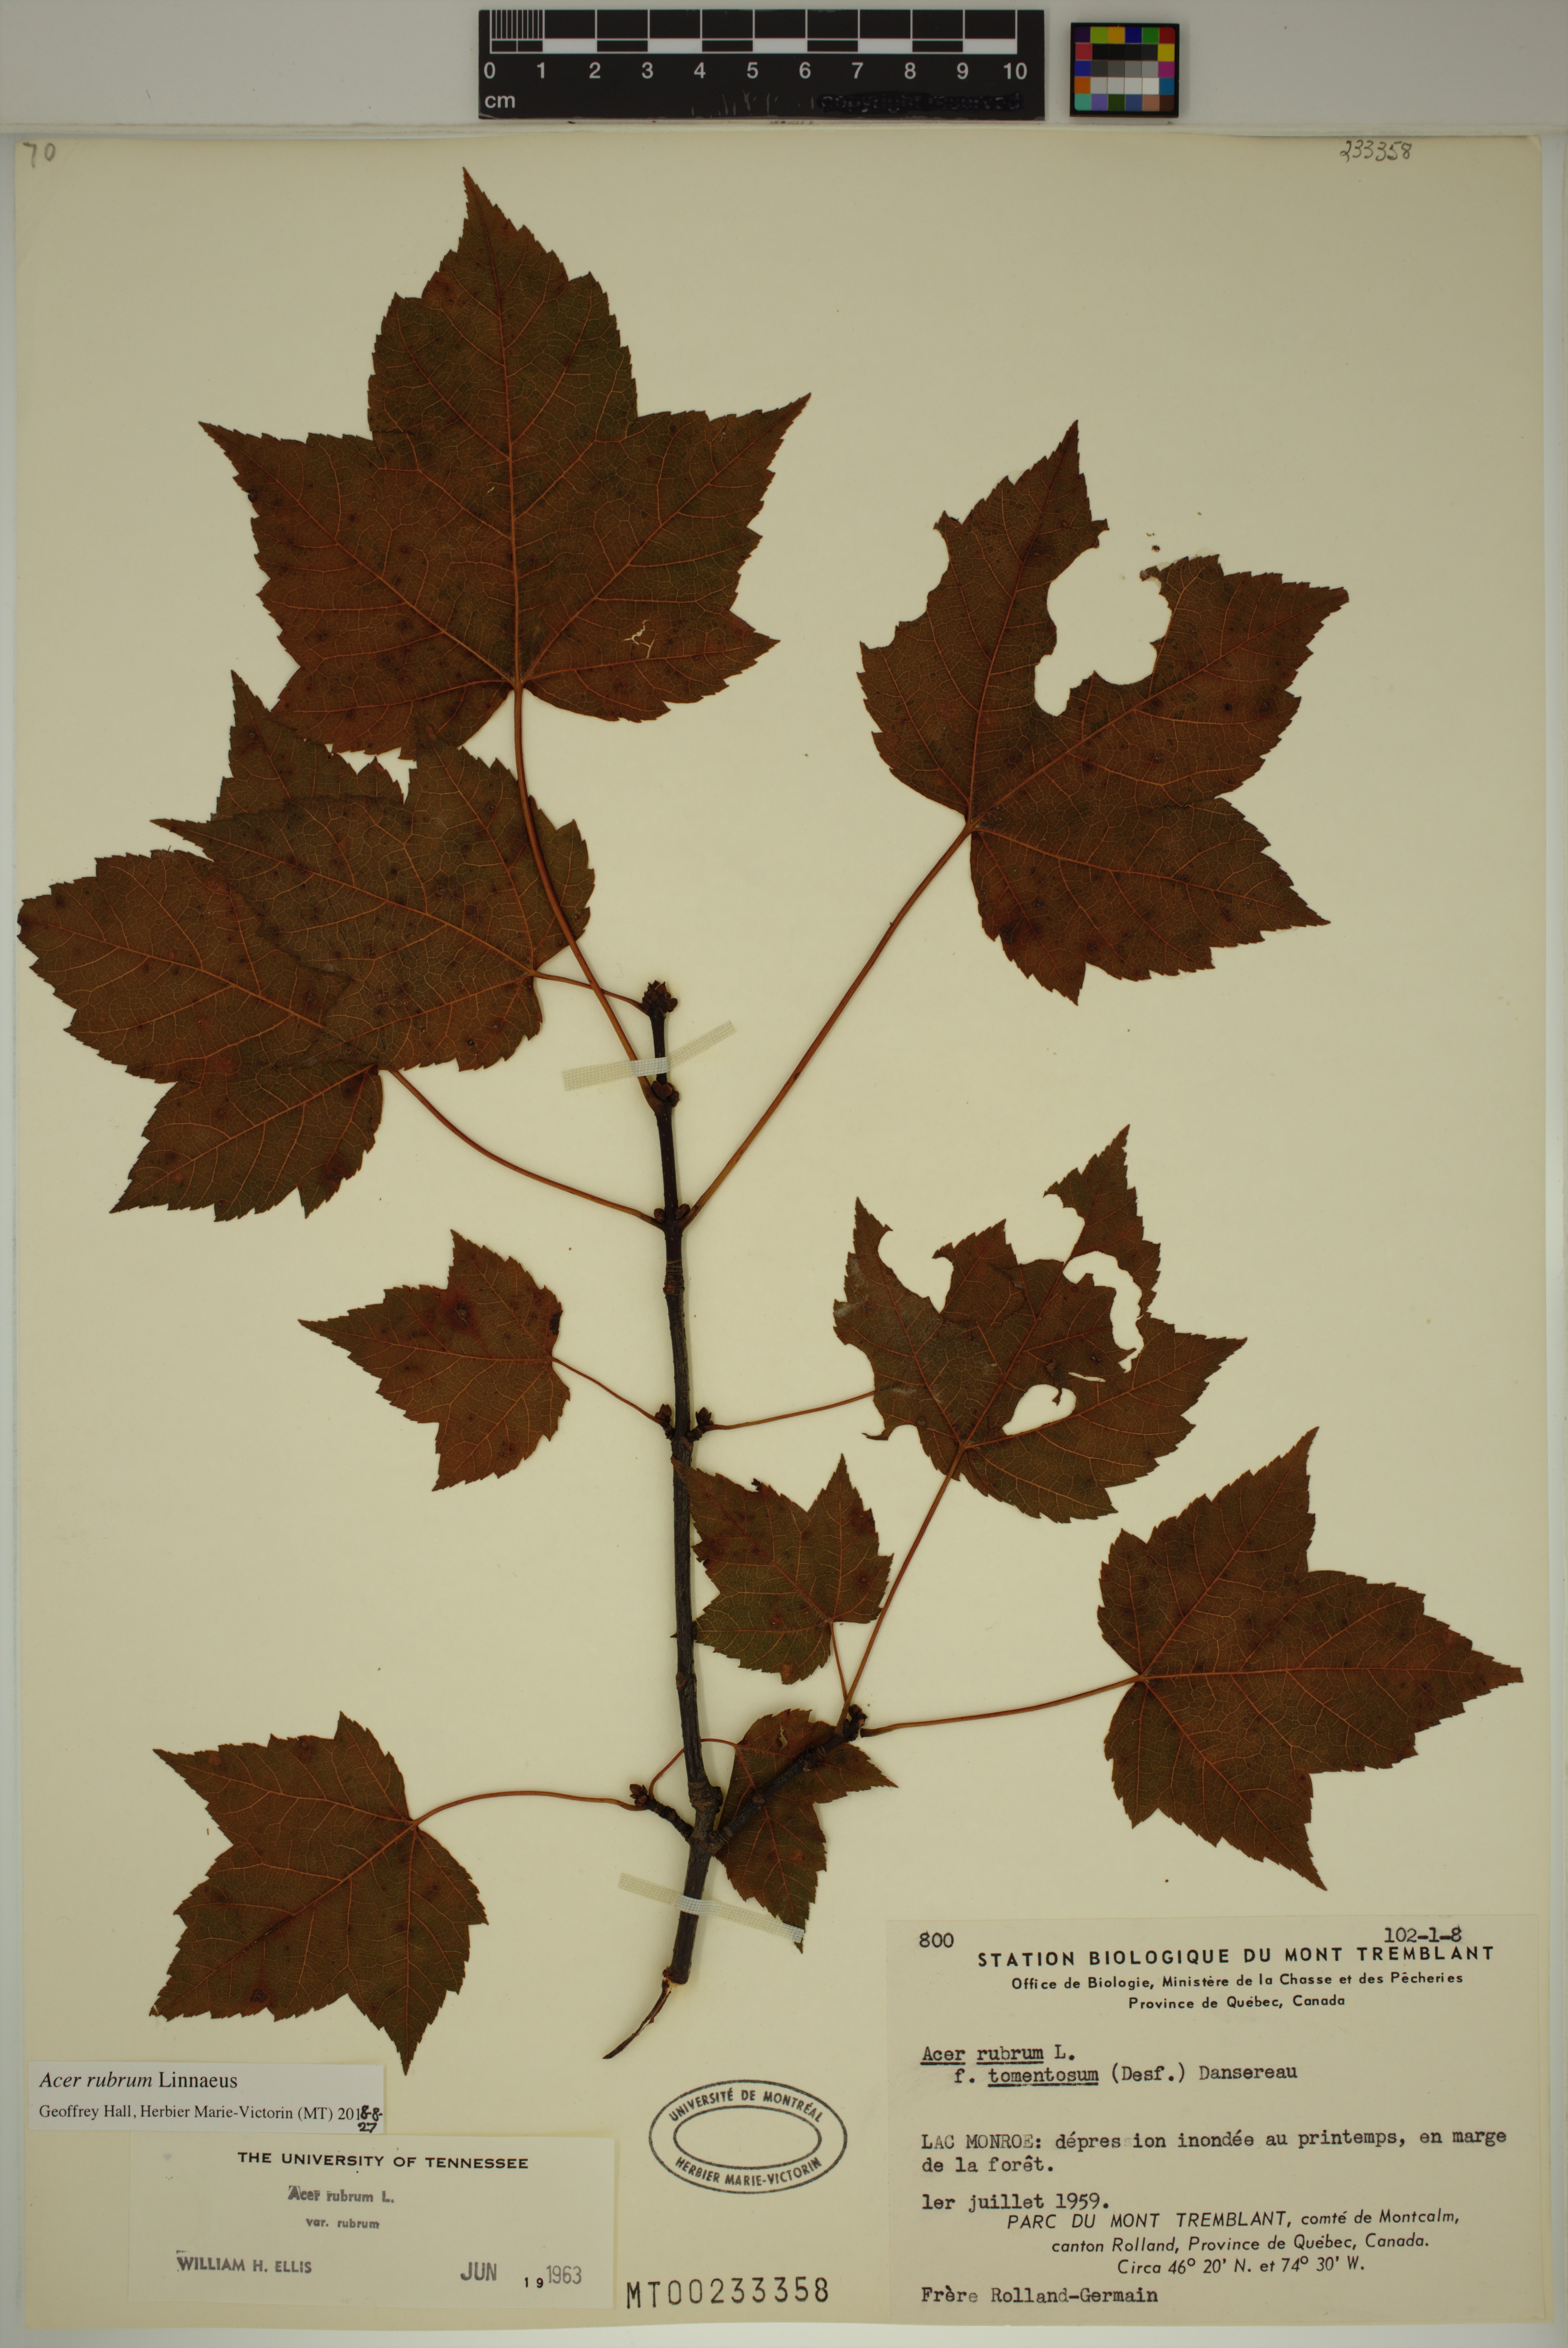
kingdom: Plantae
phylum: Tracheophyta
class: Magnoliopsida
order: Sapindales
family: Sapindaceae
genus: Acer
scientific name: Acer rubrum
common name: Red maple
